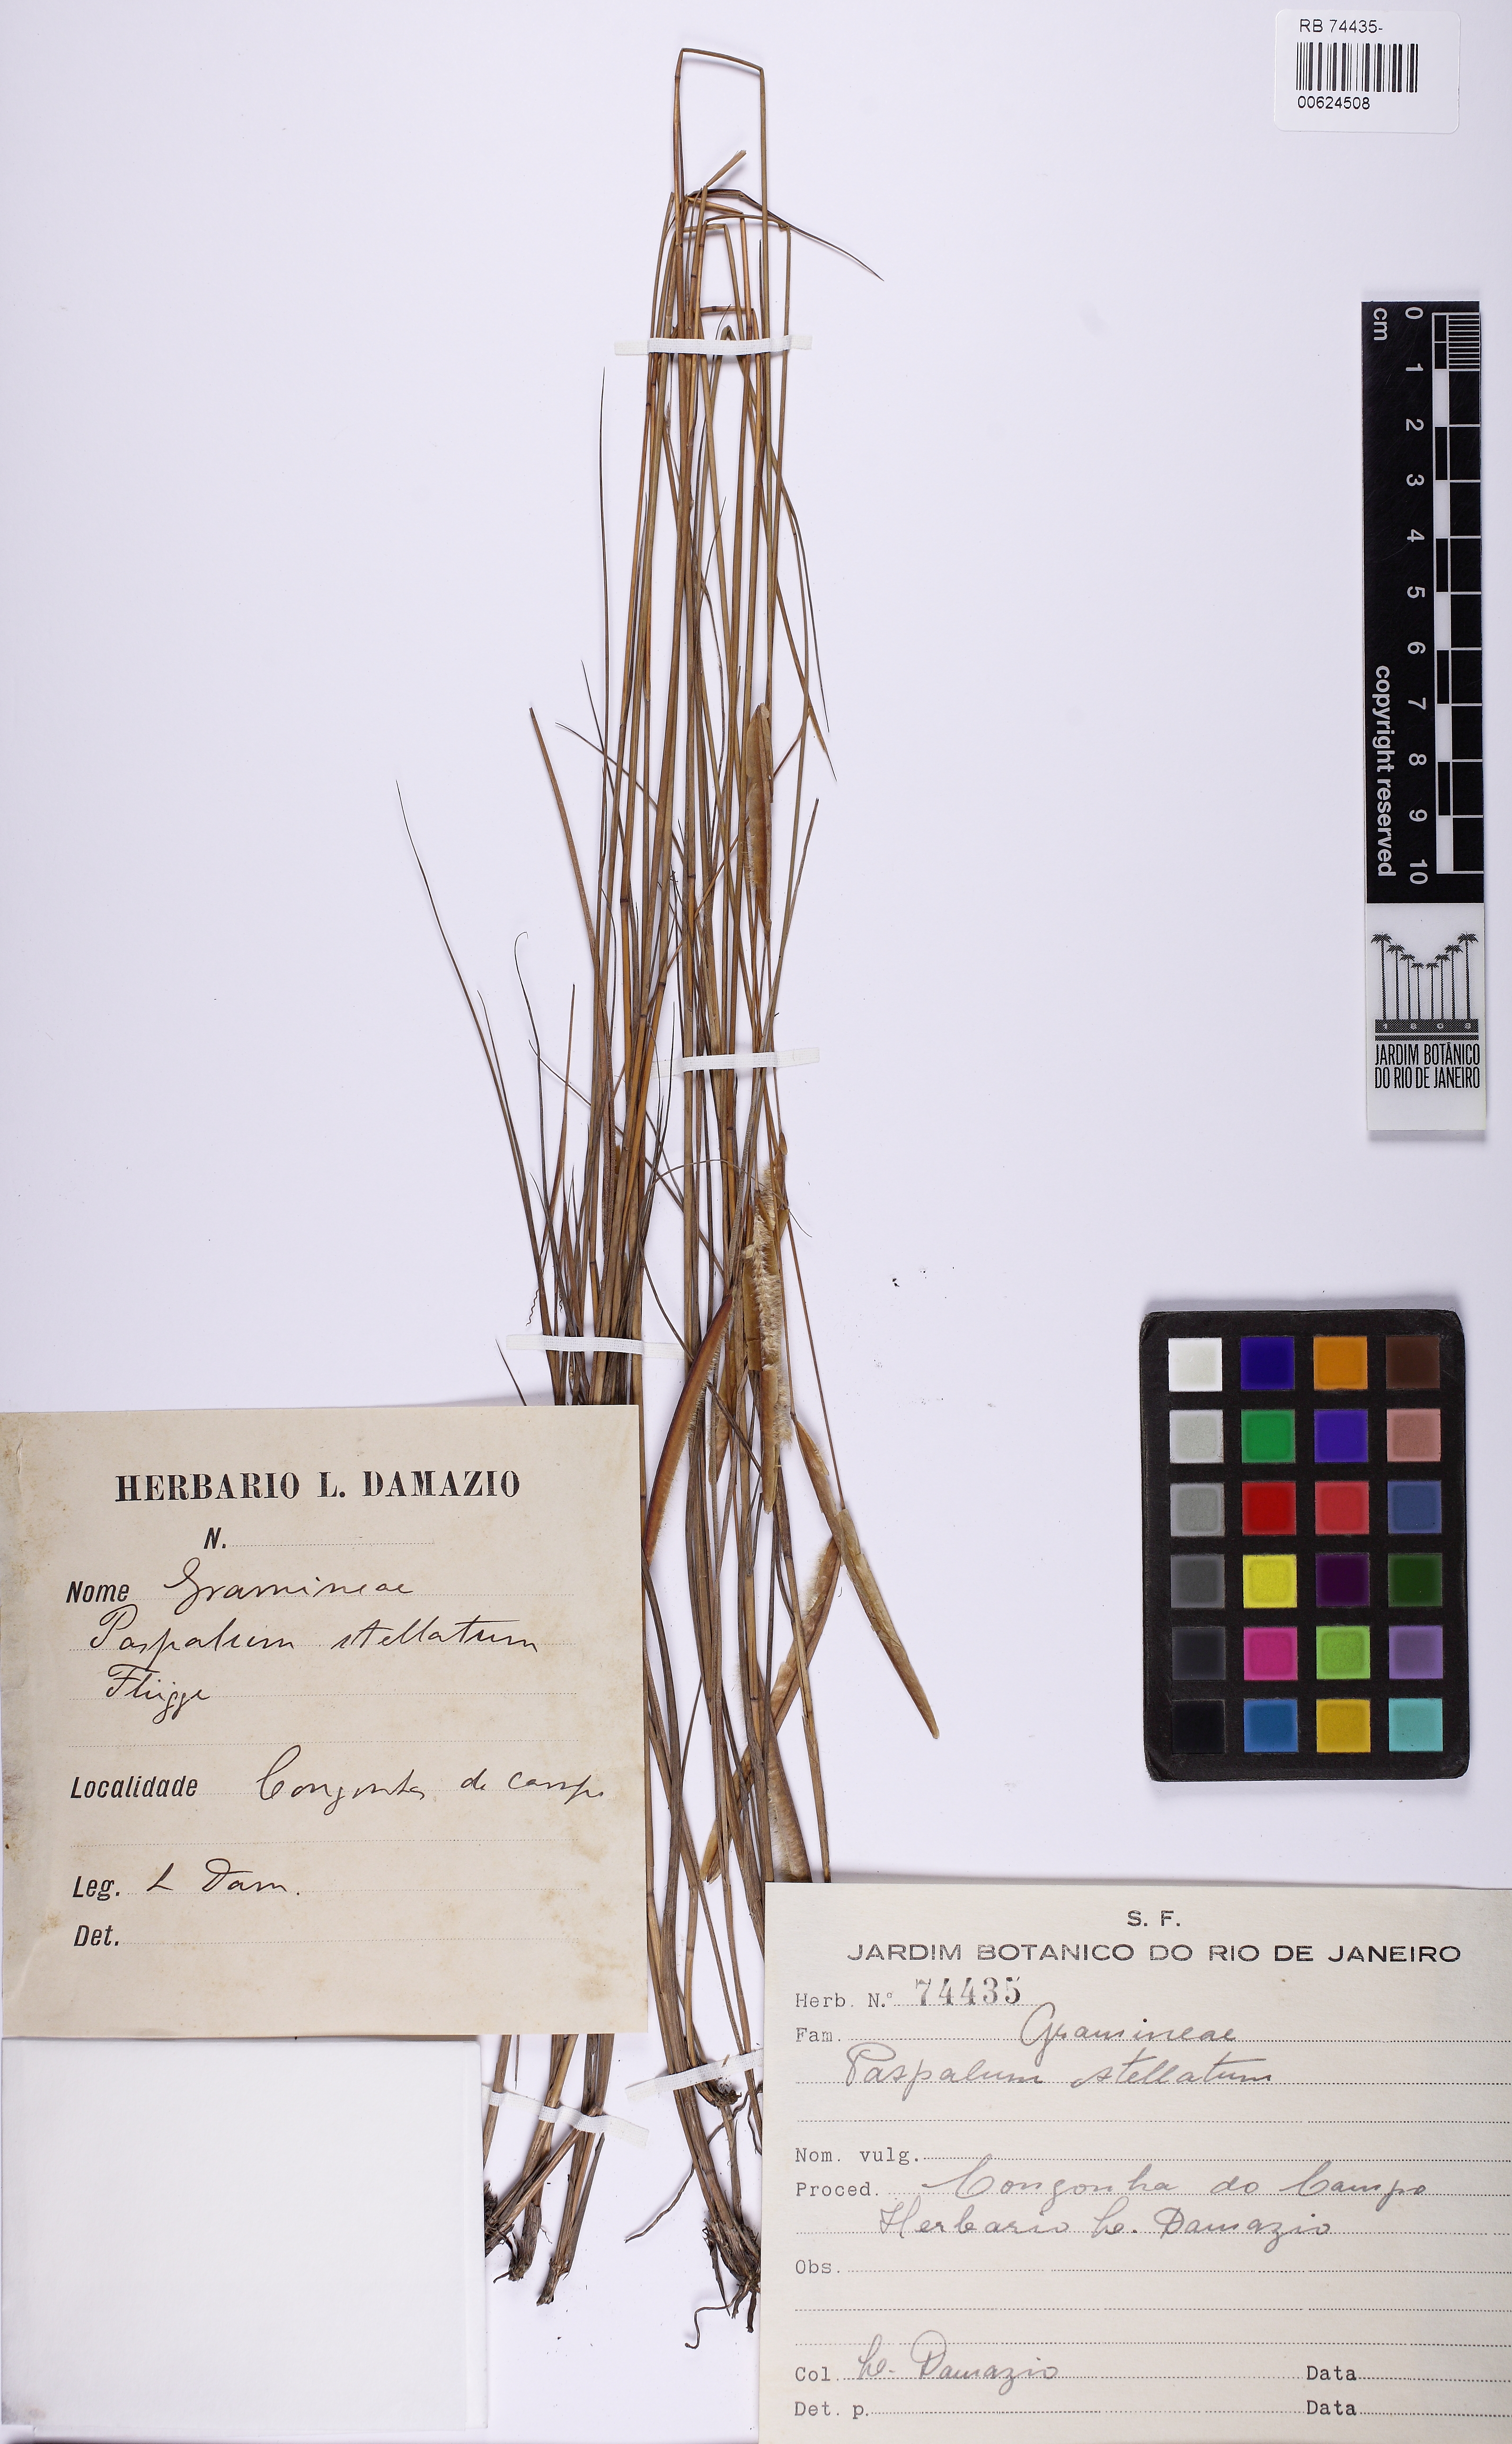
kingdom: Plantae
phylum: Tracheophyta
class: Liliopsida
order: Poales
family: Poaceae
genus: Paspalum
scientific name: Paspalum stellatum
